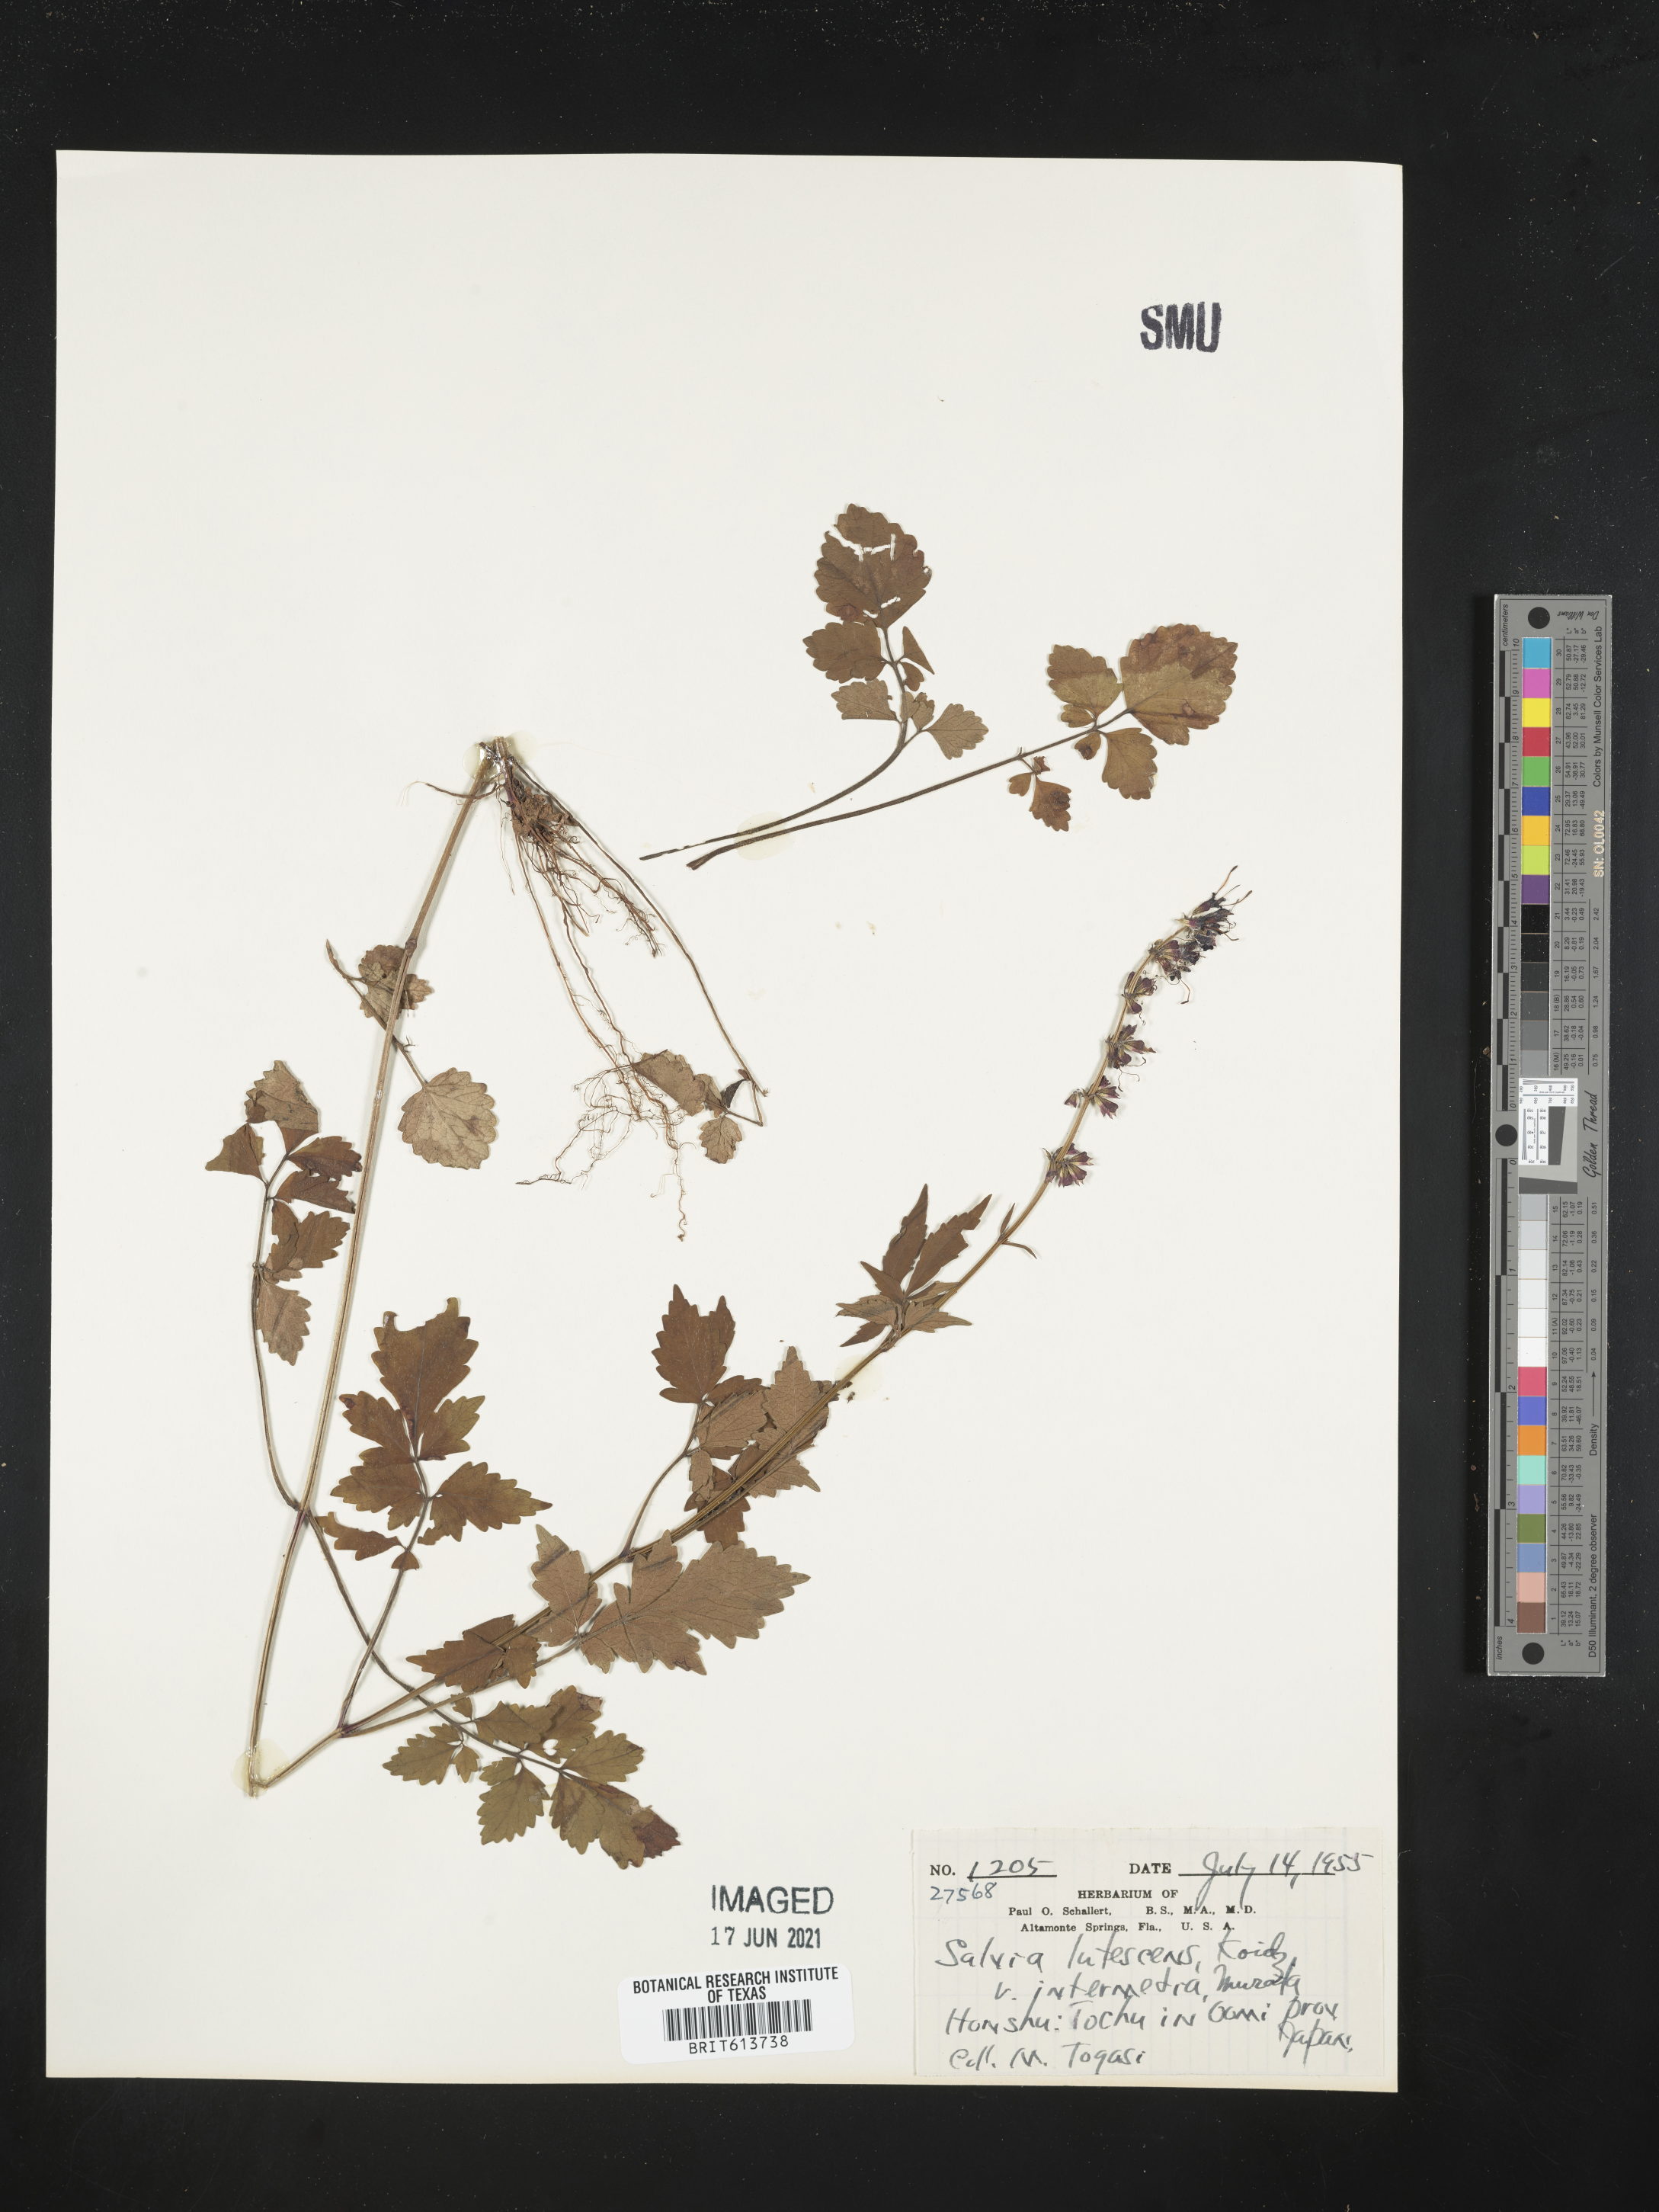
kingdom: Plantae
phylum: Tracheophyta
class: Magnoliopsida
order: Lamiales
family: Lamiaceae
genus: Salvia
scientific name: Salvia lutescens
